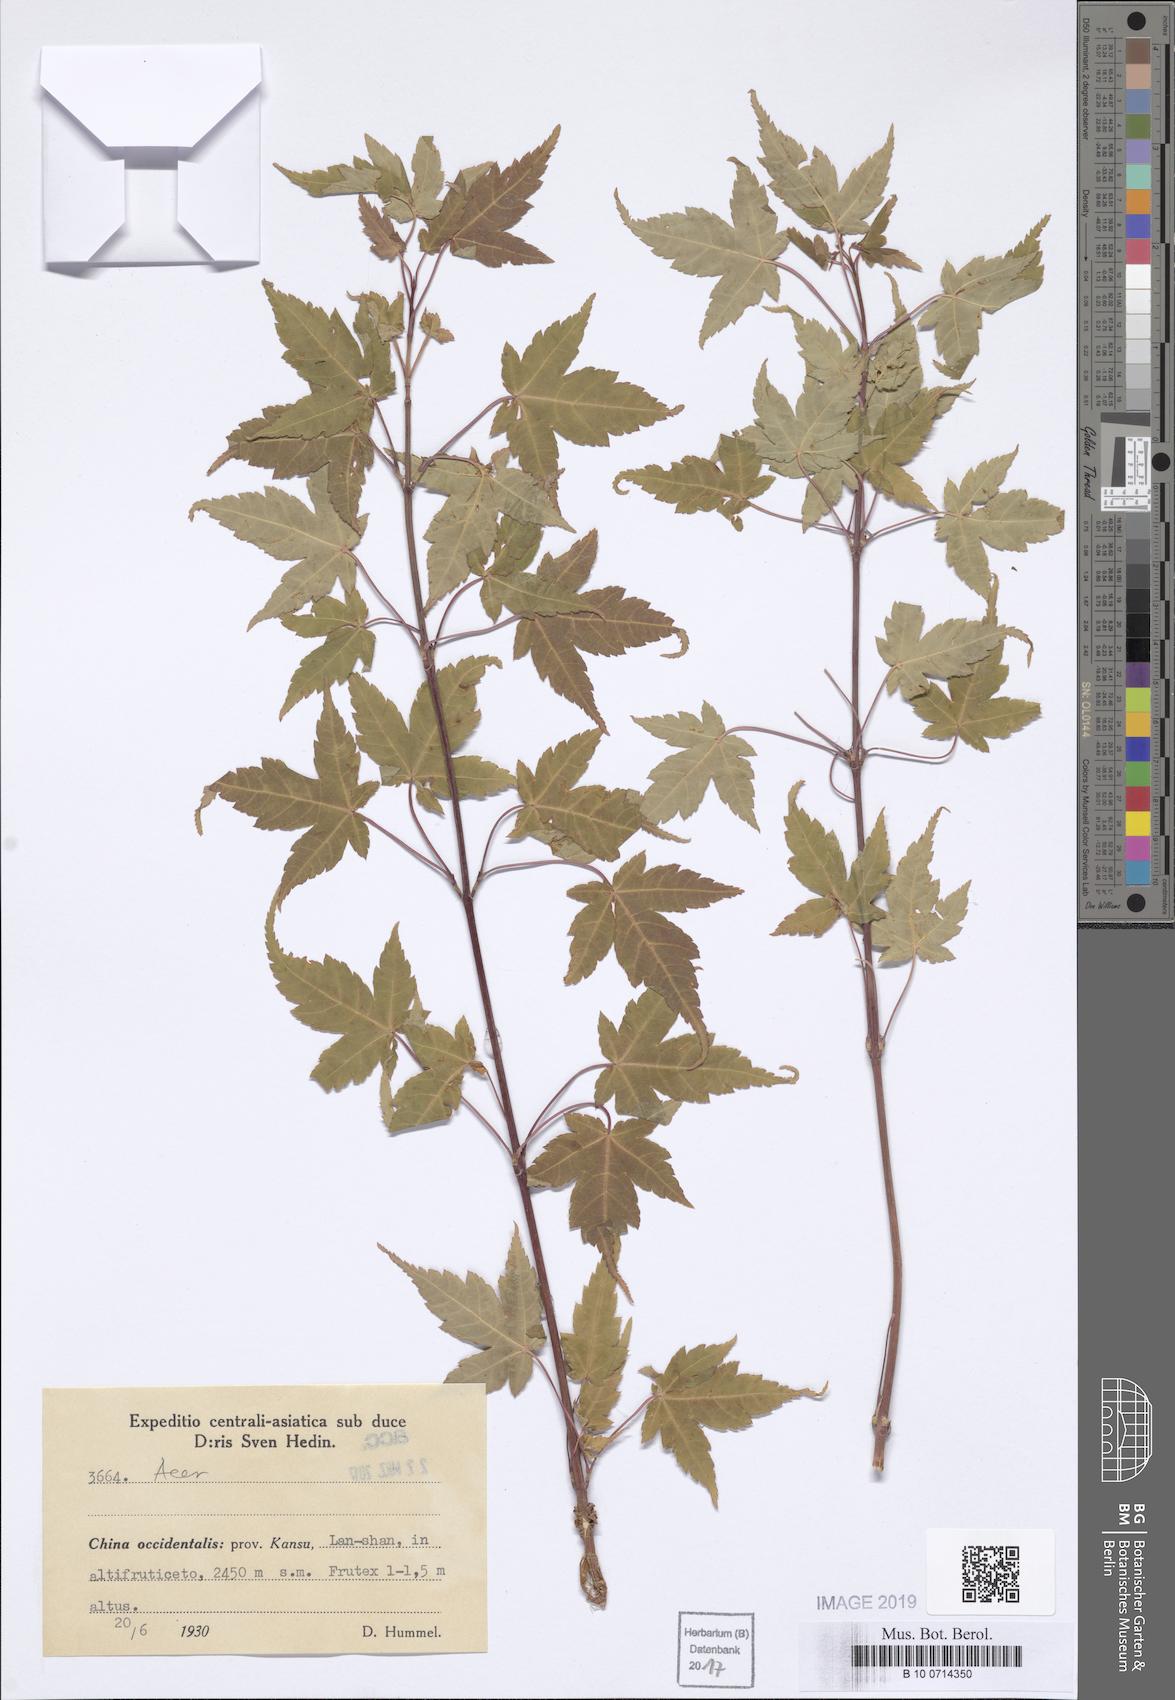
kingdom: Plantae
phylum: Tracheophyta
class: Magnoliopsida
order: Sapindales
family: Sapindaceae
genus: Acer
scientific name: Acer
